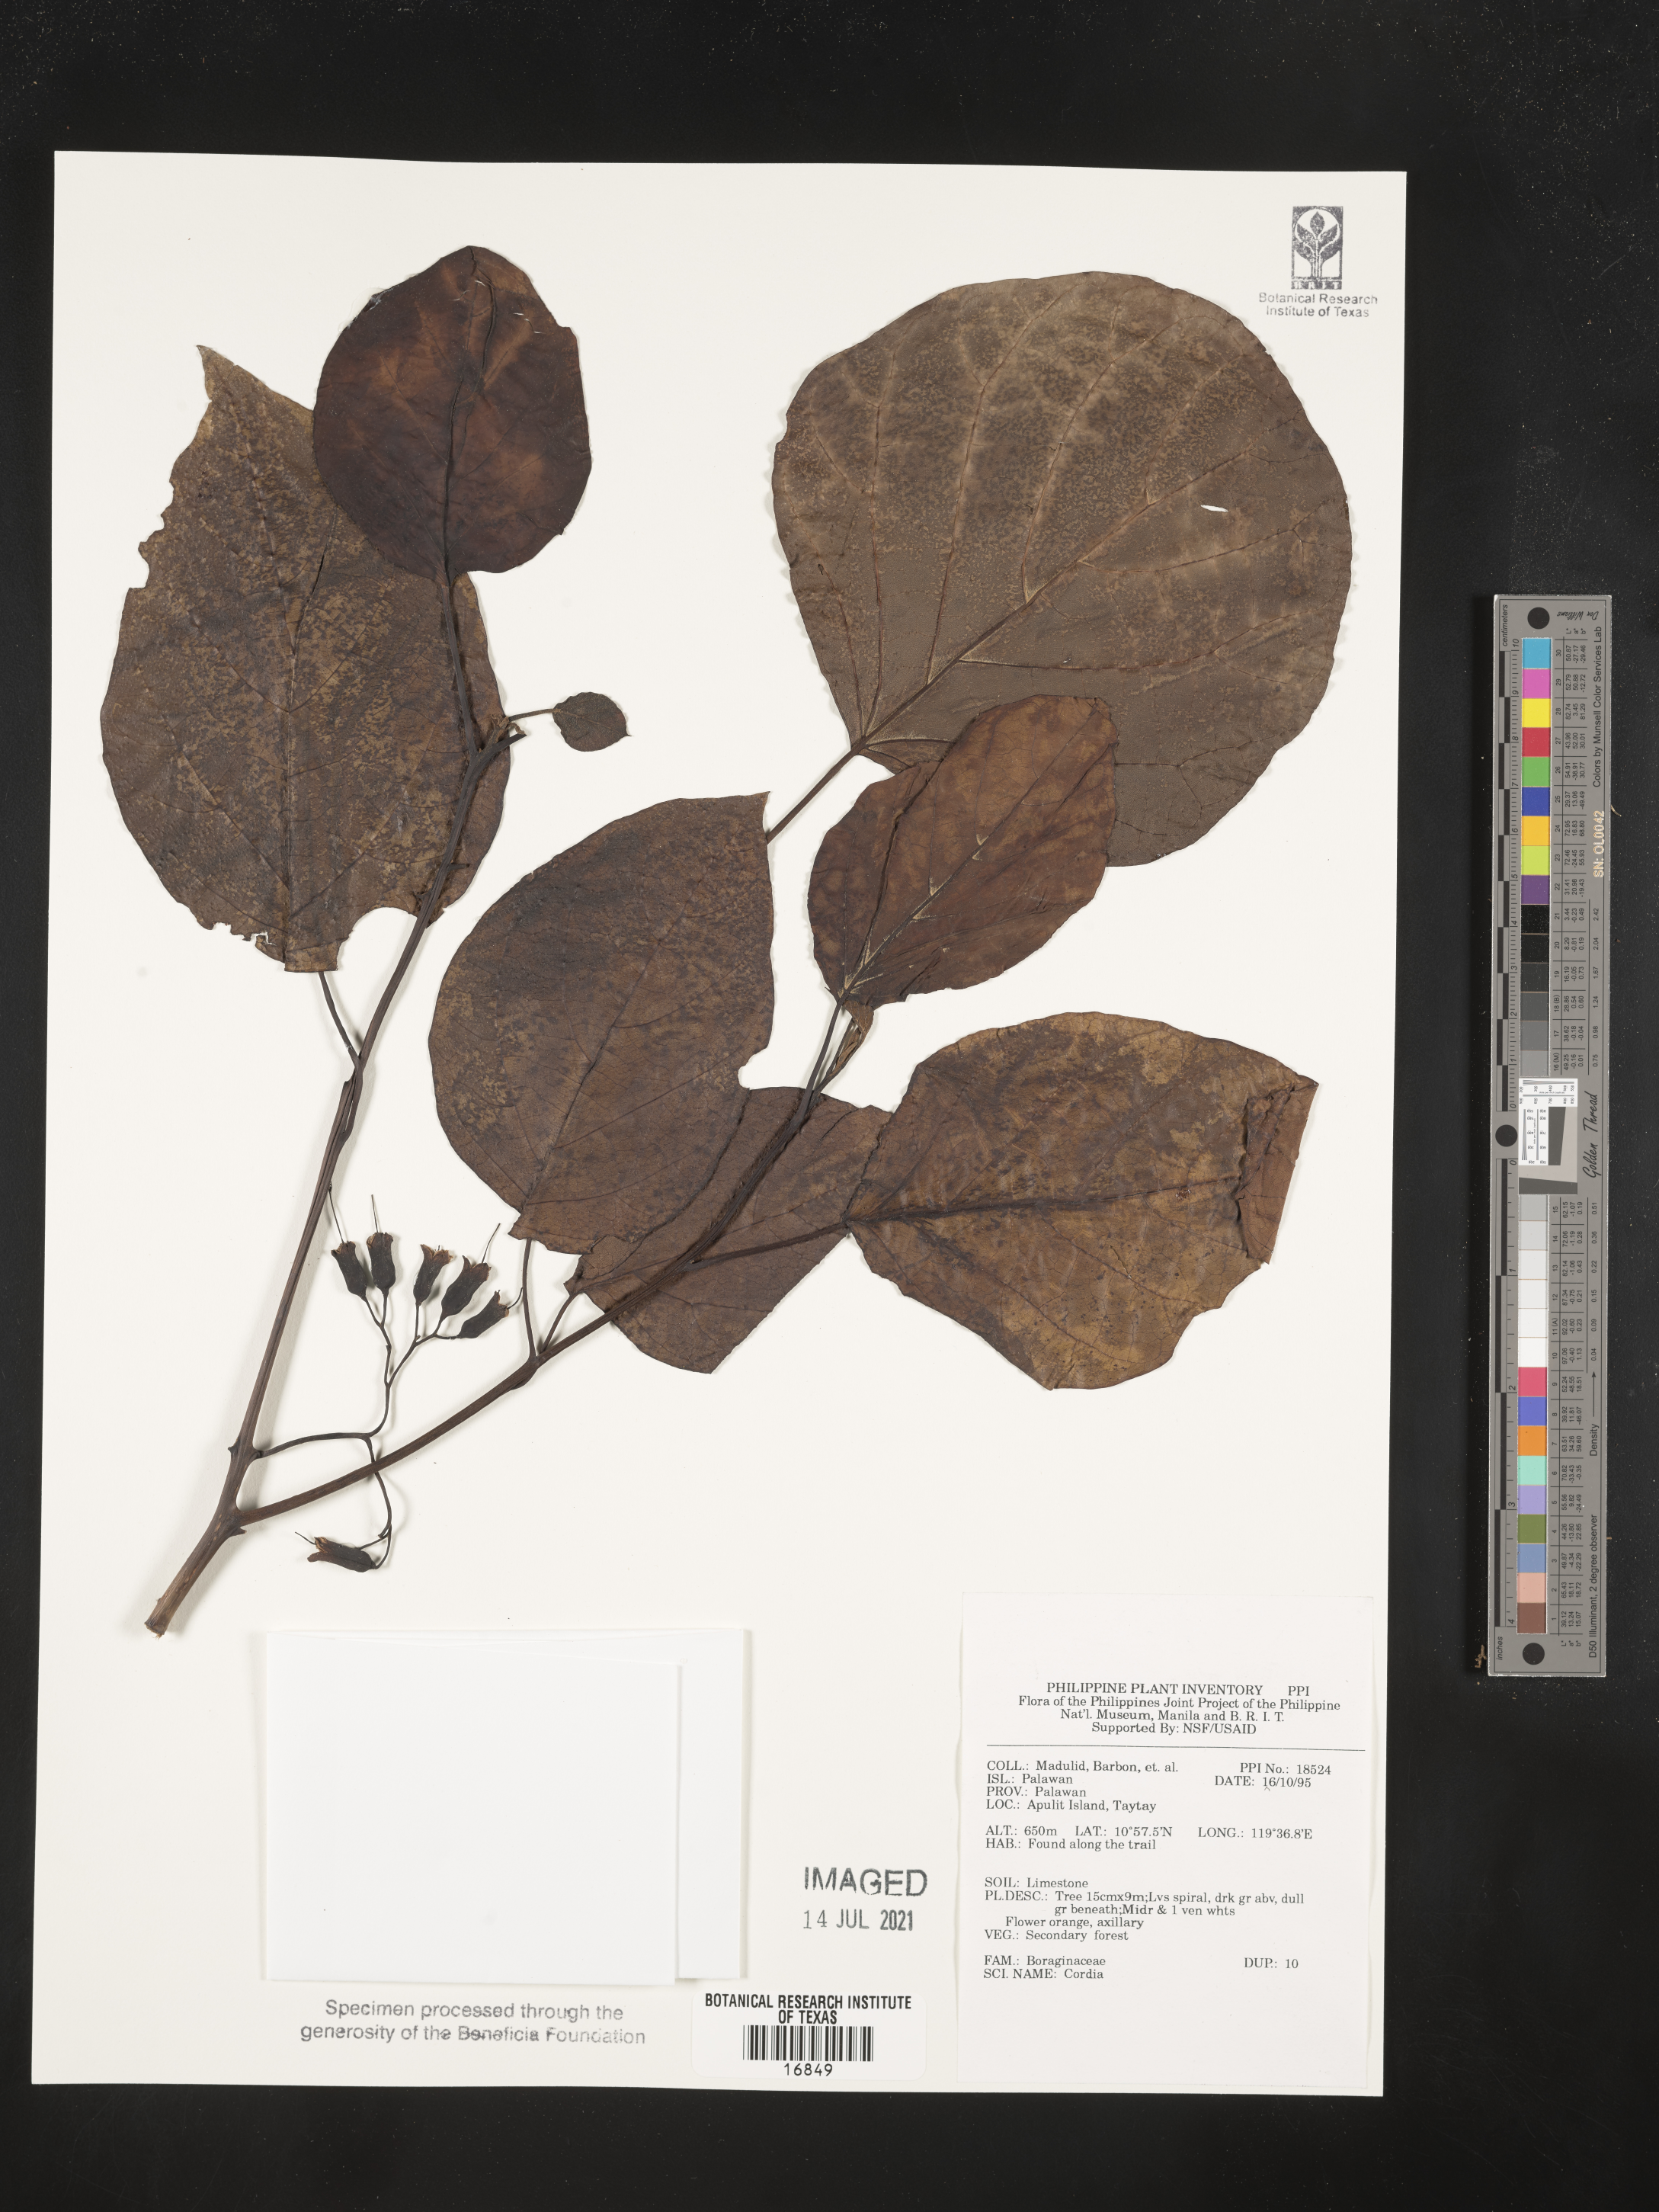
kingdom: Plantae
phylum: Tracheophyta
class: Magnoliopsida
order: Boraginales
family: Cordiaceae
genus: Cordia
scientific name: Cordia
